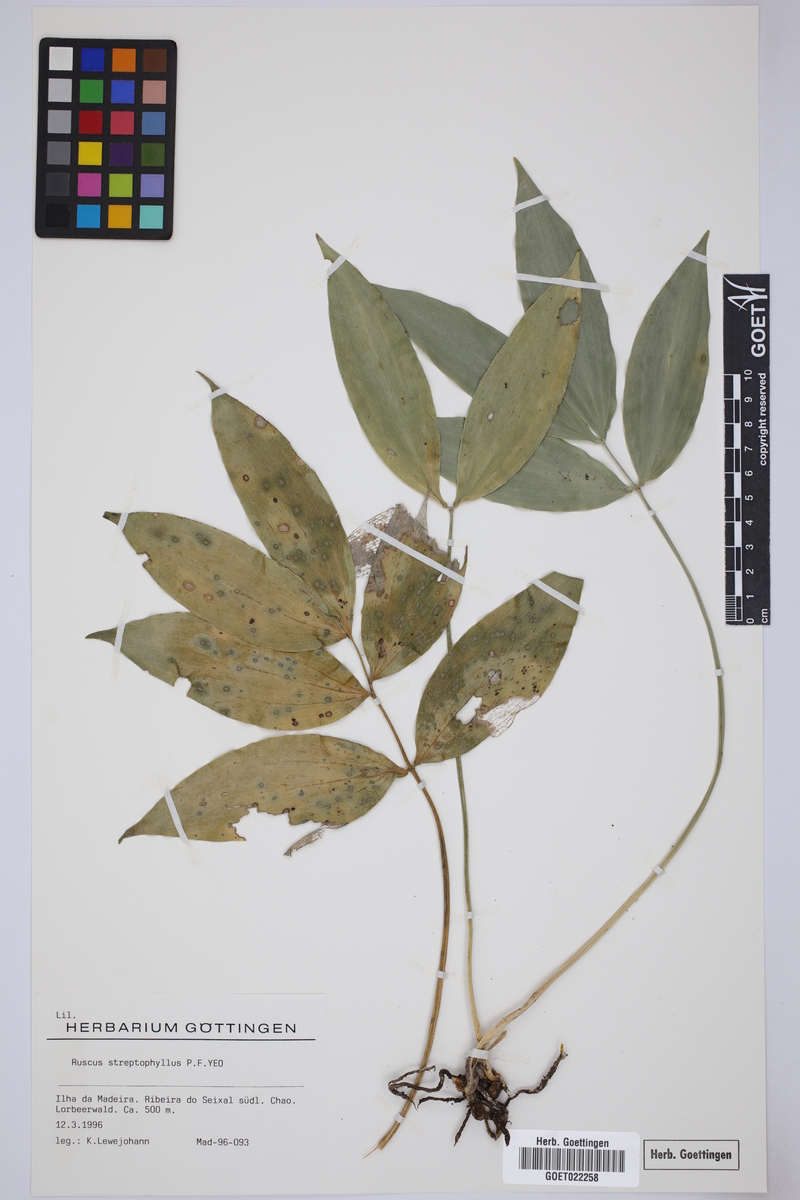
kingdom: Plantae
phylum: Tracheophyta
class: Liliopsida
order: Asparagales
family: Asparagaceae
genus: Ruscus
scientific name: Ruscus streptophyllus
